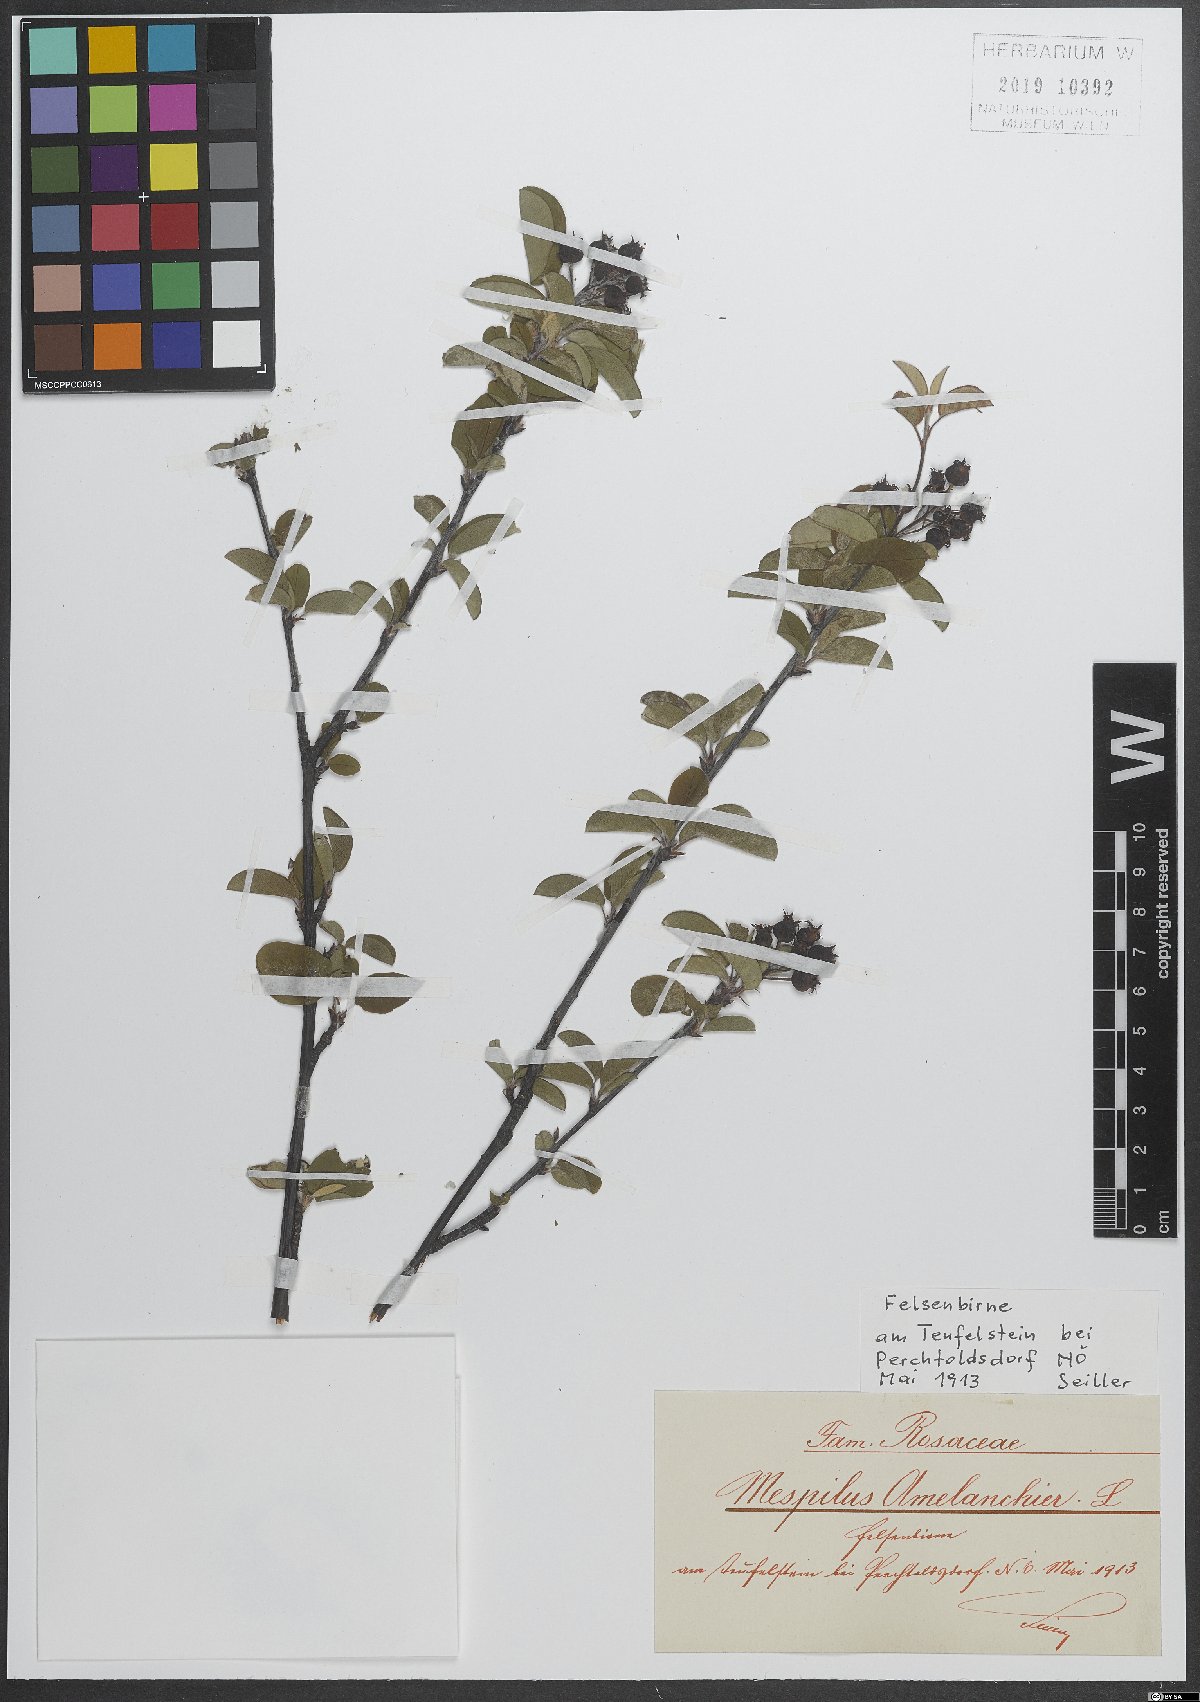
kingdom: Plantae
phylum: Tracheophyta
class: Magnoliopsida
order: Rosales
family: Rosaceae
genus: Amelanchier
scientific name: Amelanchier ovalis
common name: Serviceberry
